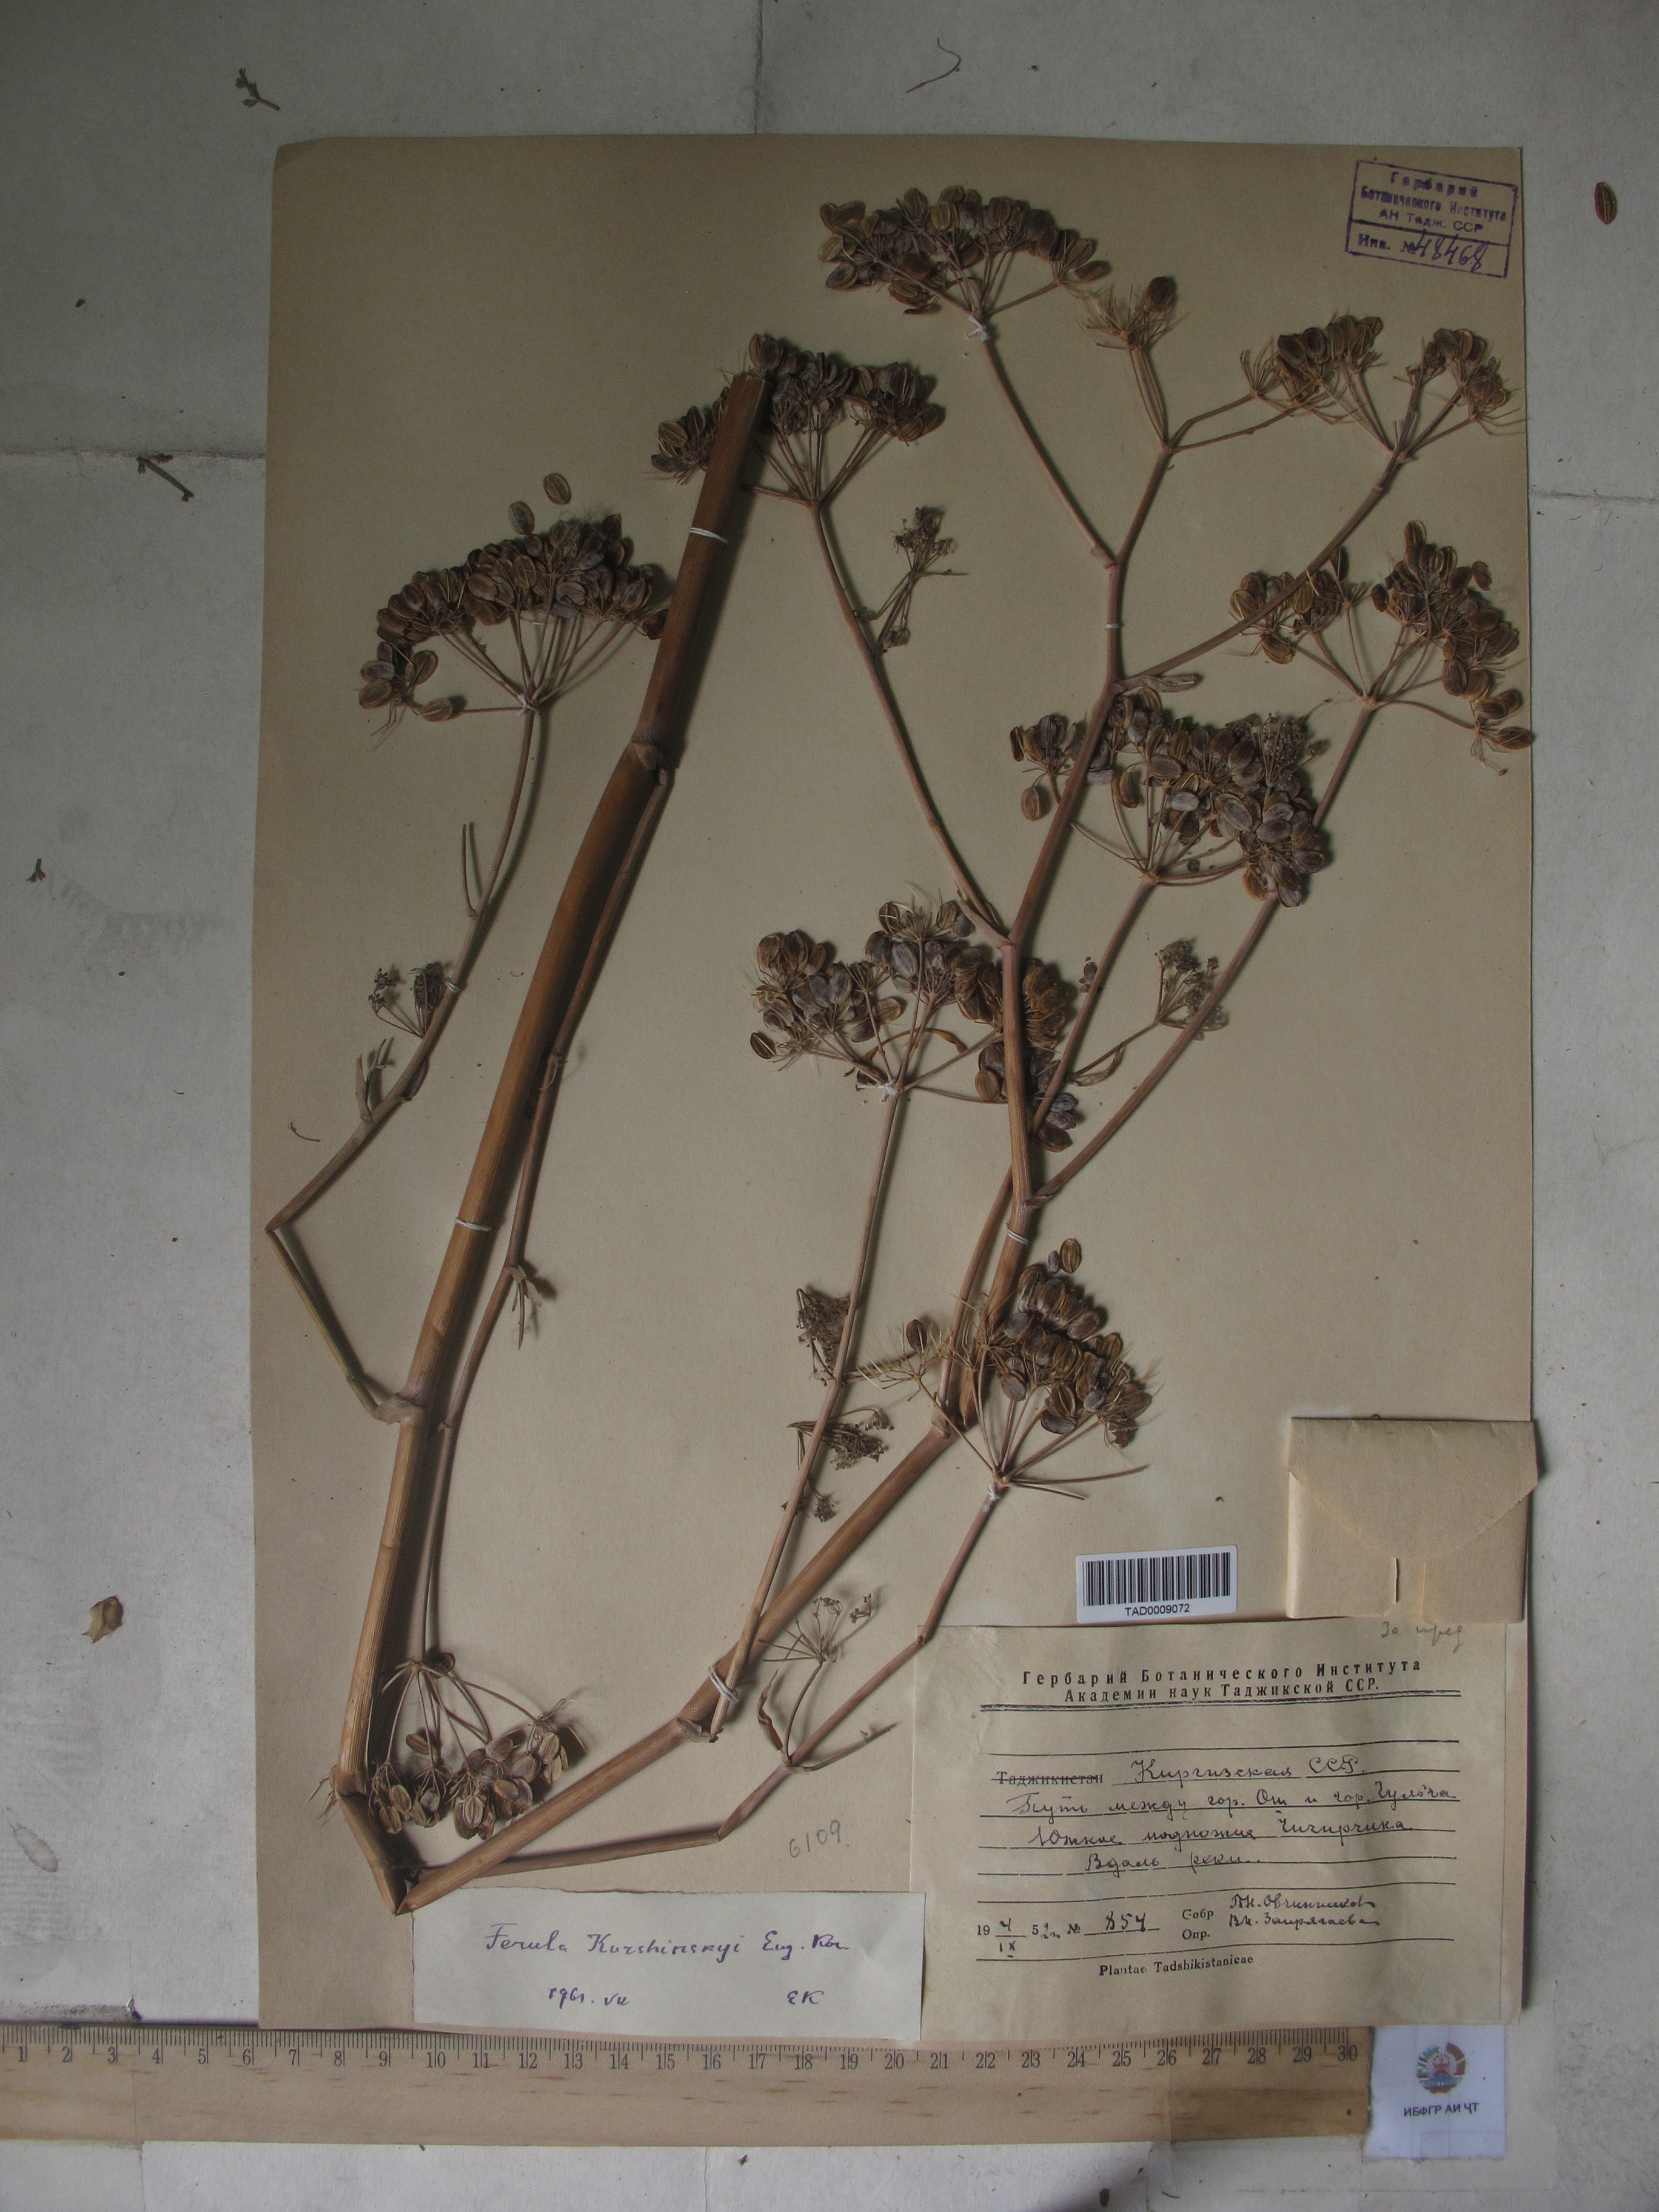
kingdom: Plantae
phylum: Tracheophyta
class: Magnoliopsida
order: Apiales
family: Apiaceae
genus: Ferula
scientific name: Ferula
